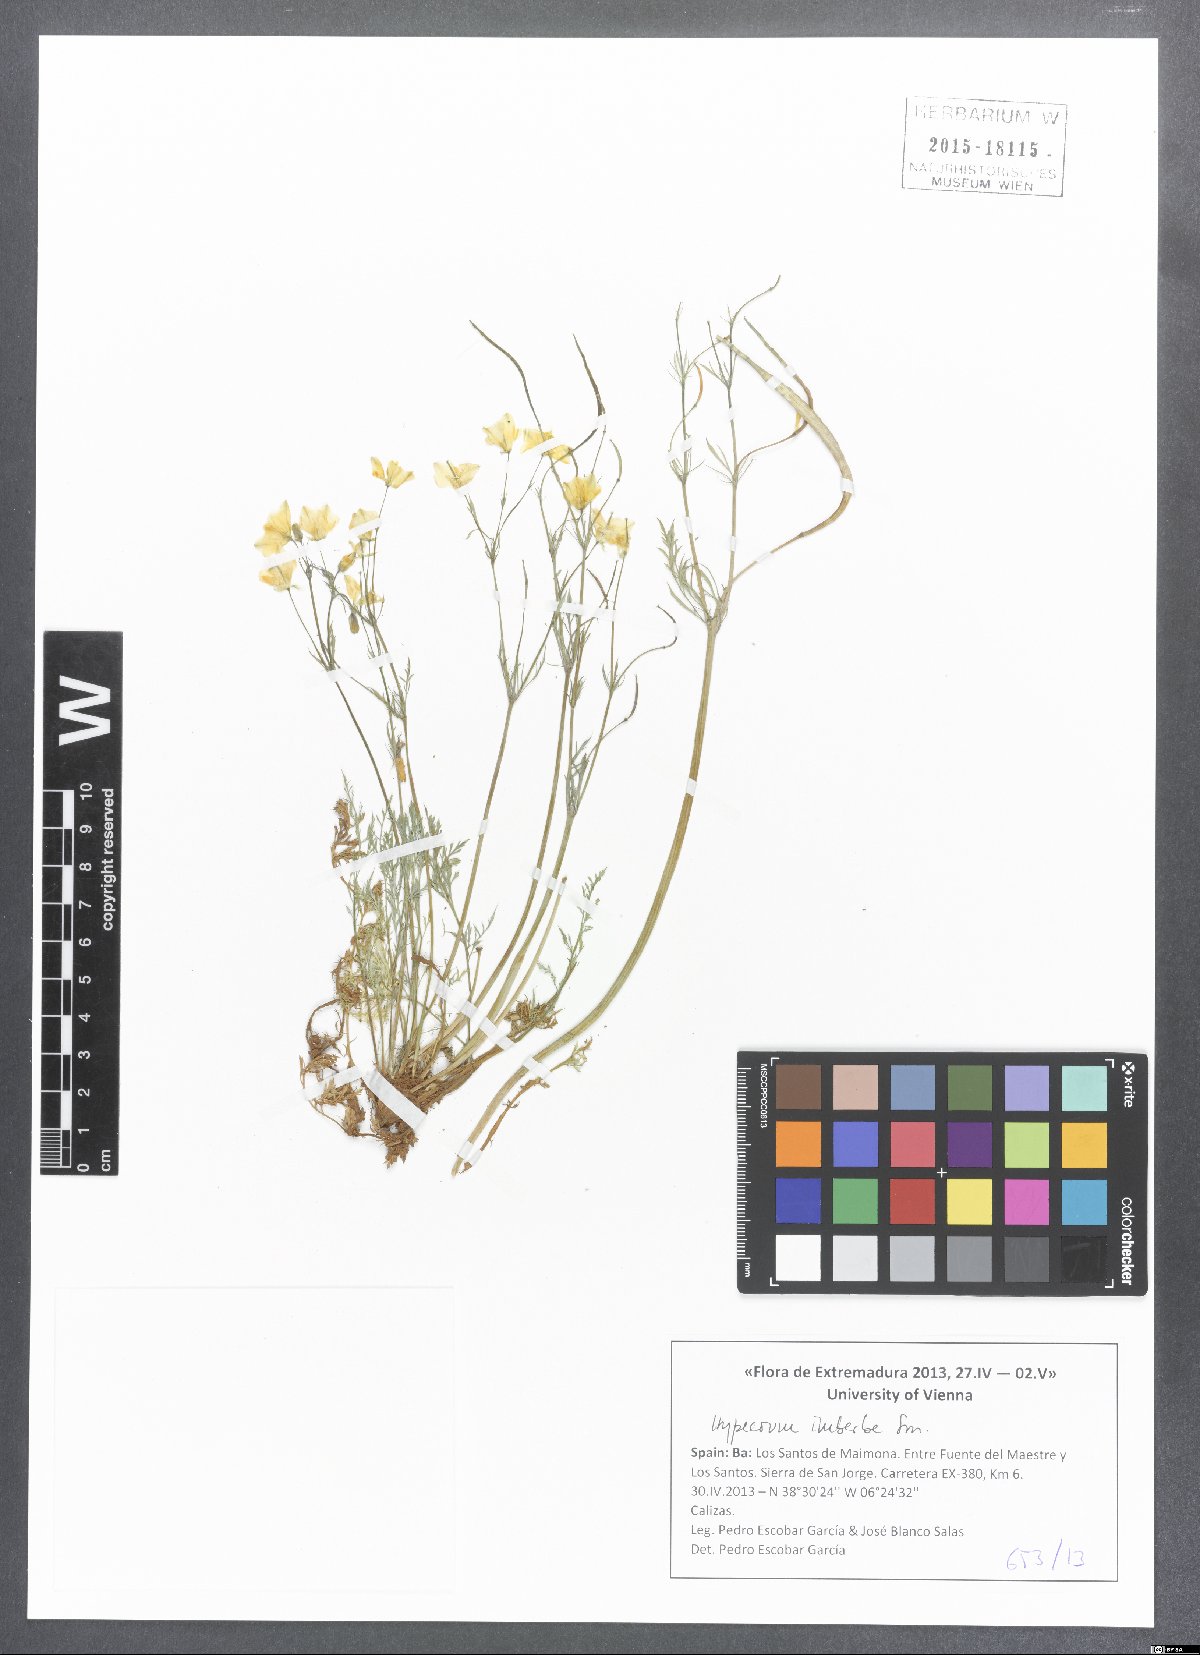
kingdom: Plantae
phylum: Tracheophyta
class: Magnoliopsida
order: Ranunculales
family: Papaveraceae
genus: Hypecoum
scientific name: Hypecoum imberbe
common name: Sicklefruit hypecoum
